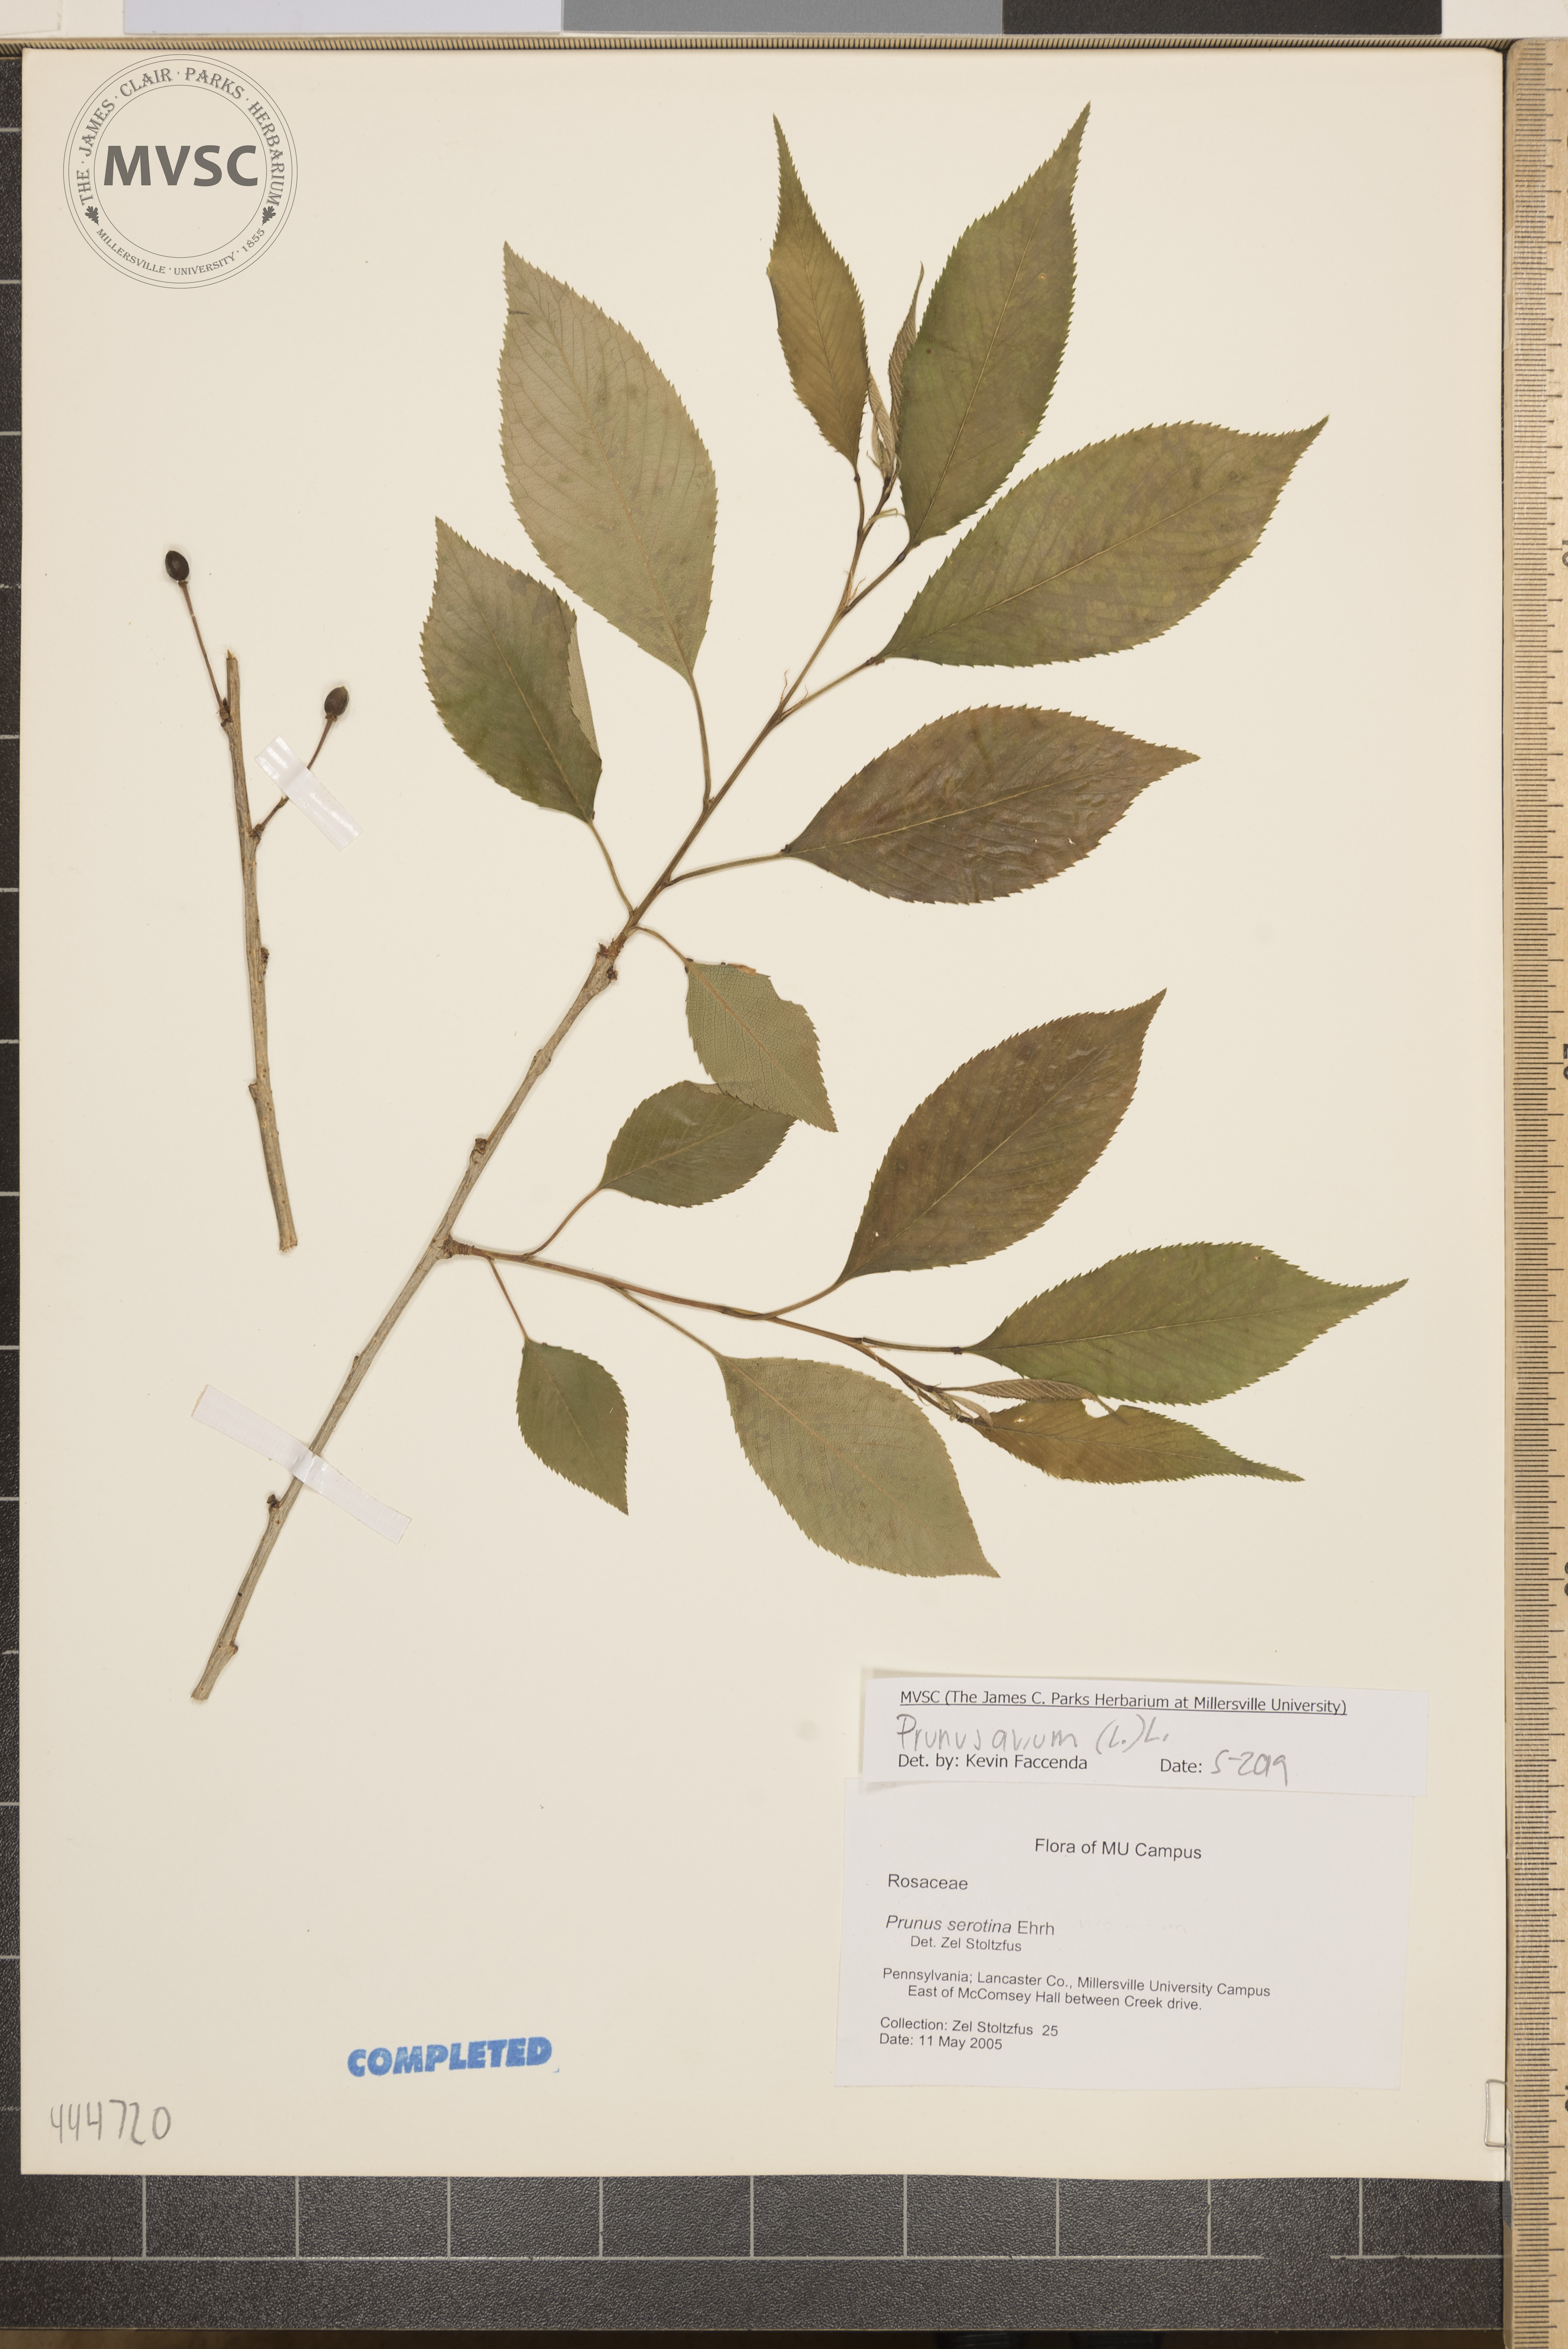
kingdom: Plantae
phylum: Tracheophyta
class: Magnoliopsida
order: Rosales
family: Rosaceae
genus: Prunus
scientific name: Prunus avium
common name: Sweet cherry
